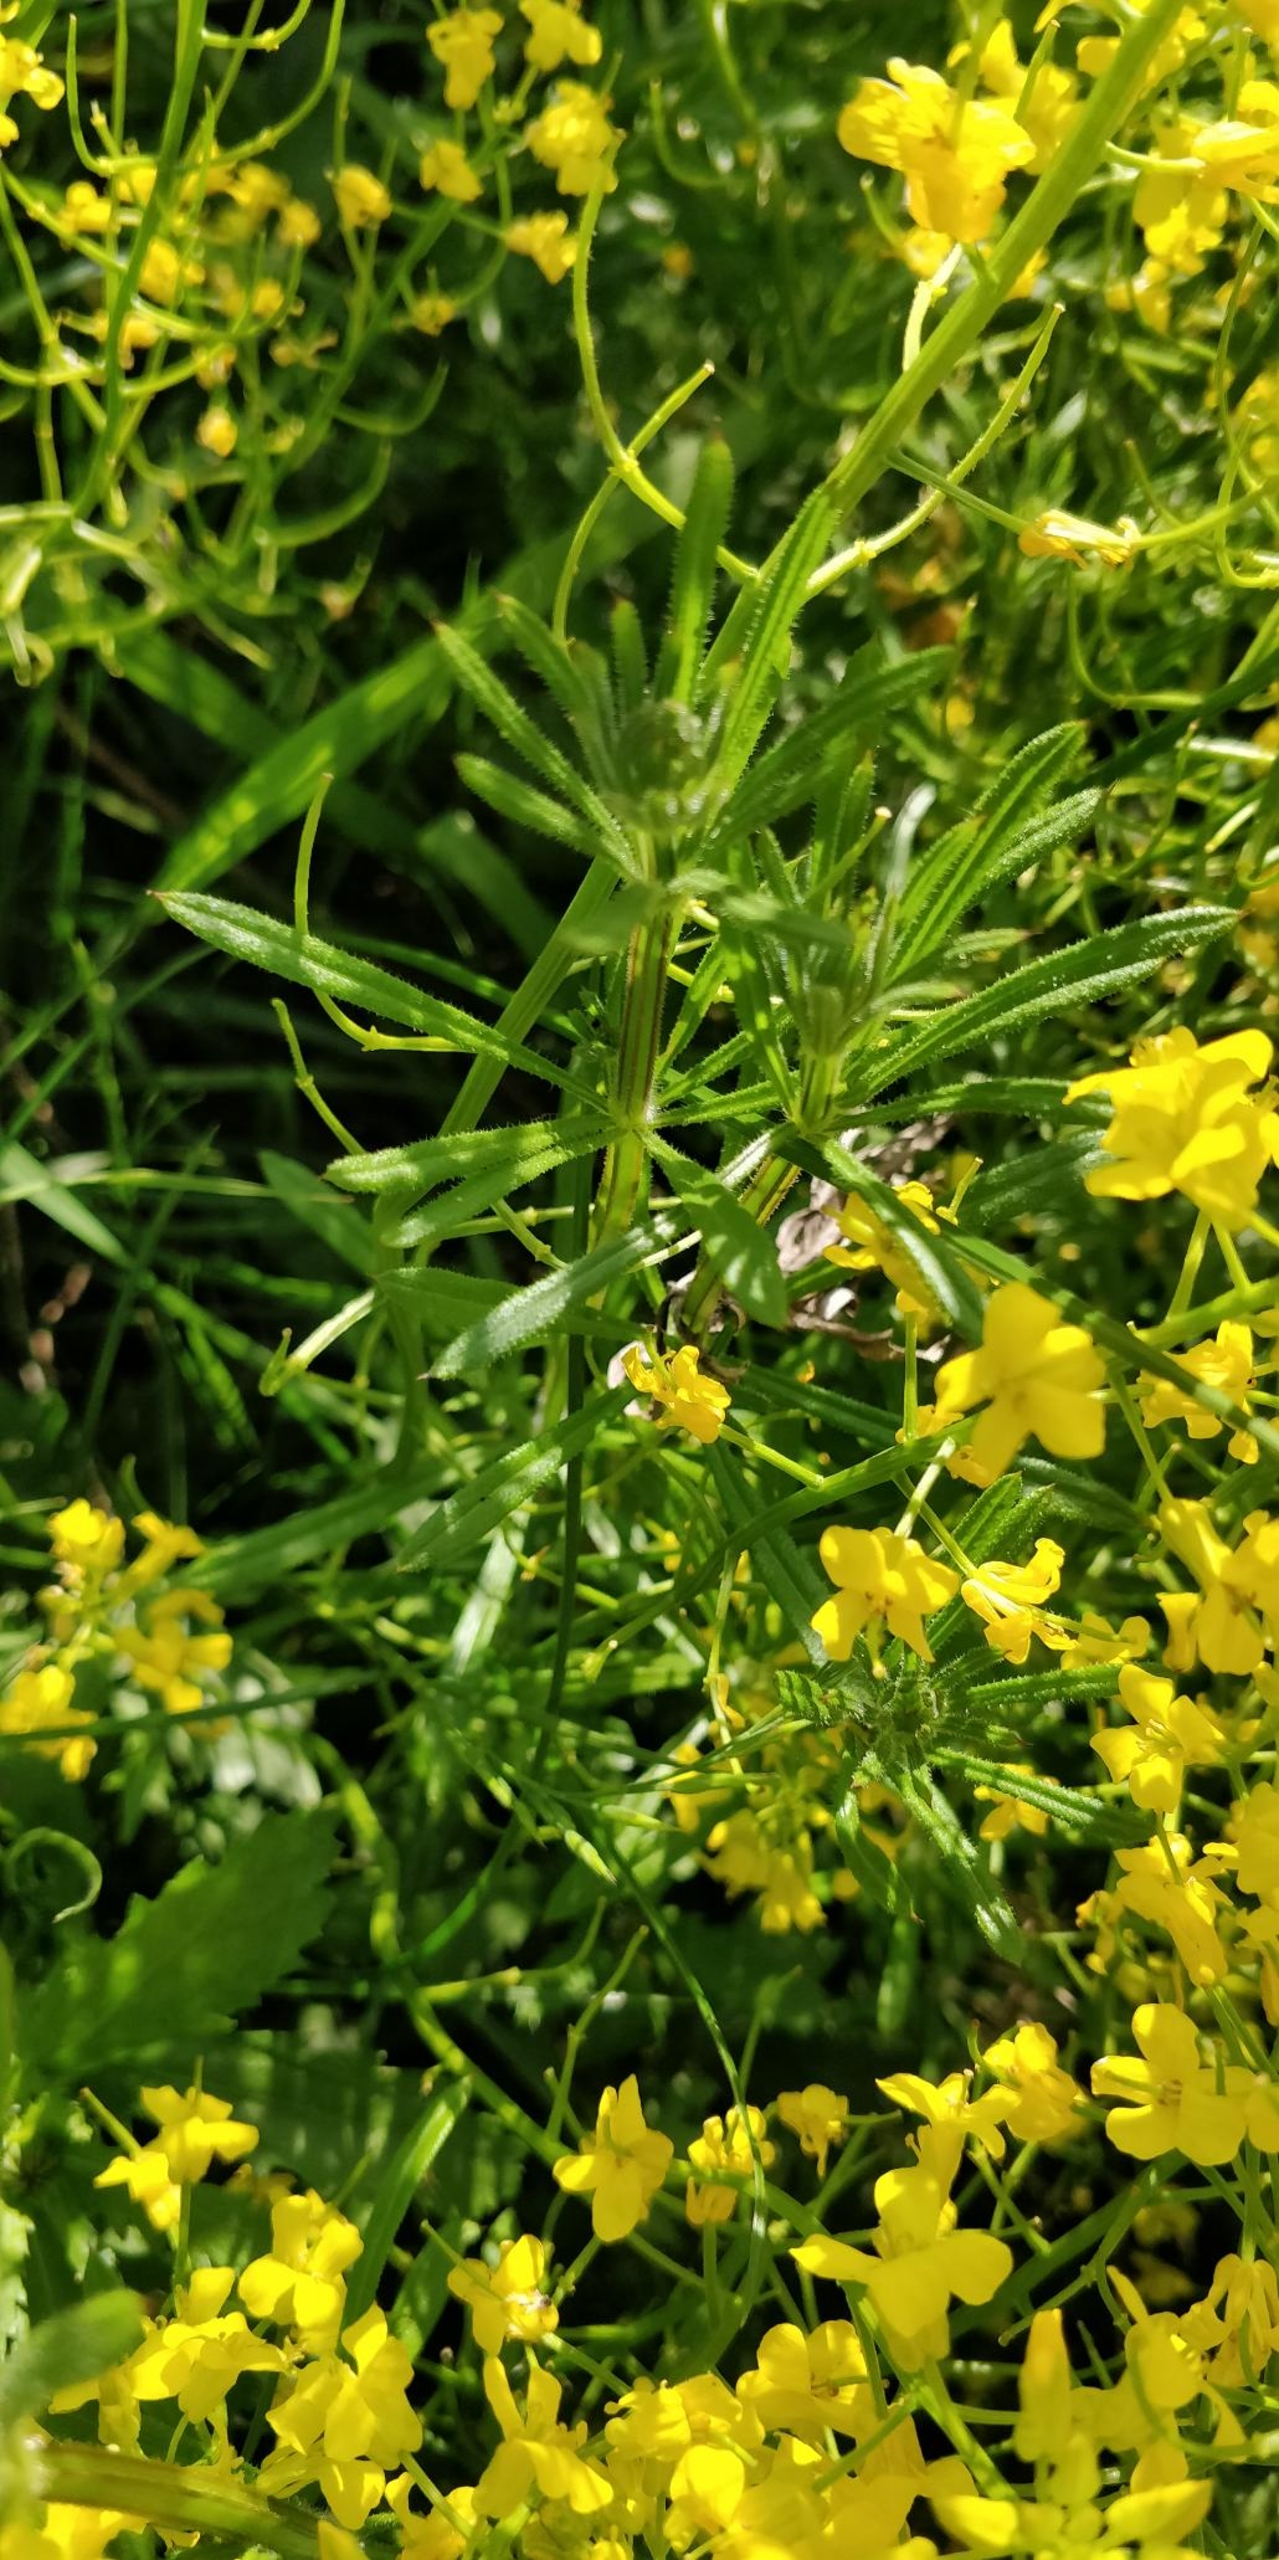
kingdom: Plantae
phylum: Tracheophyta
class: Magnoliopsida
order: Gentianales
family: Rubiaceae
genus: Galium
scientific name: Galium aparine
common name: Burre-snerre
